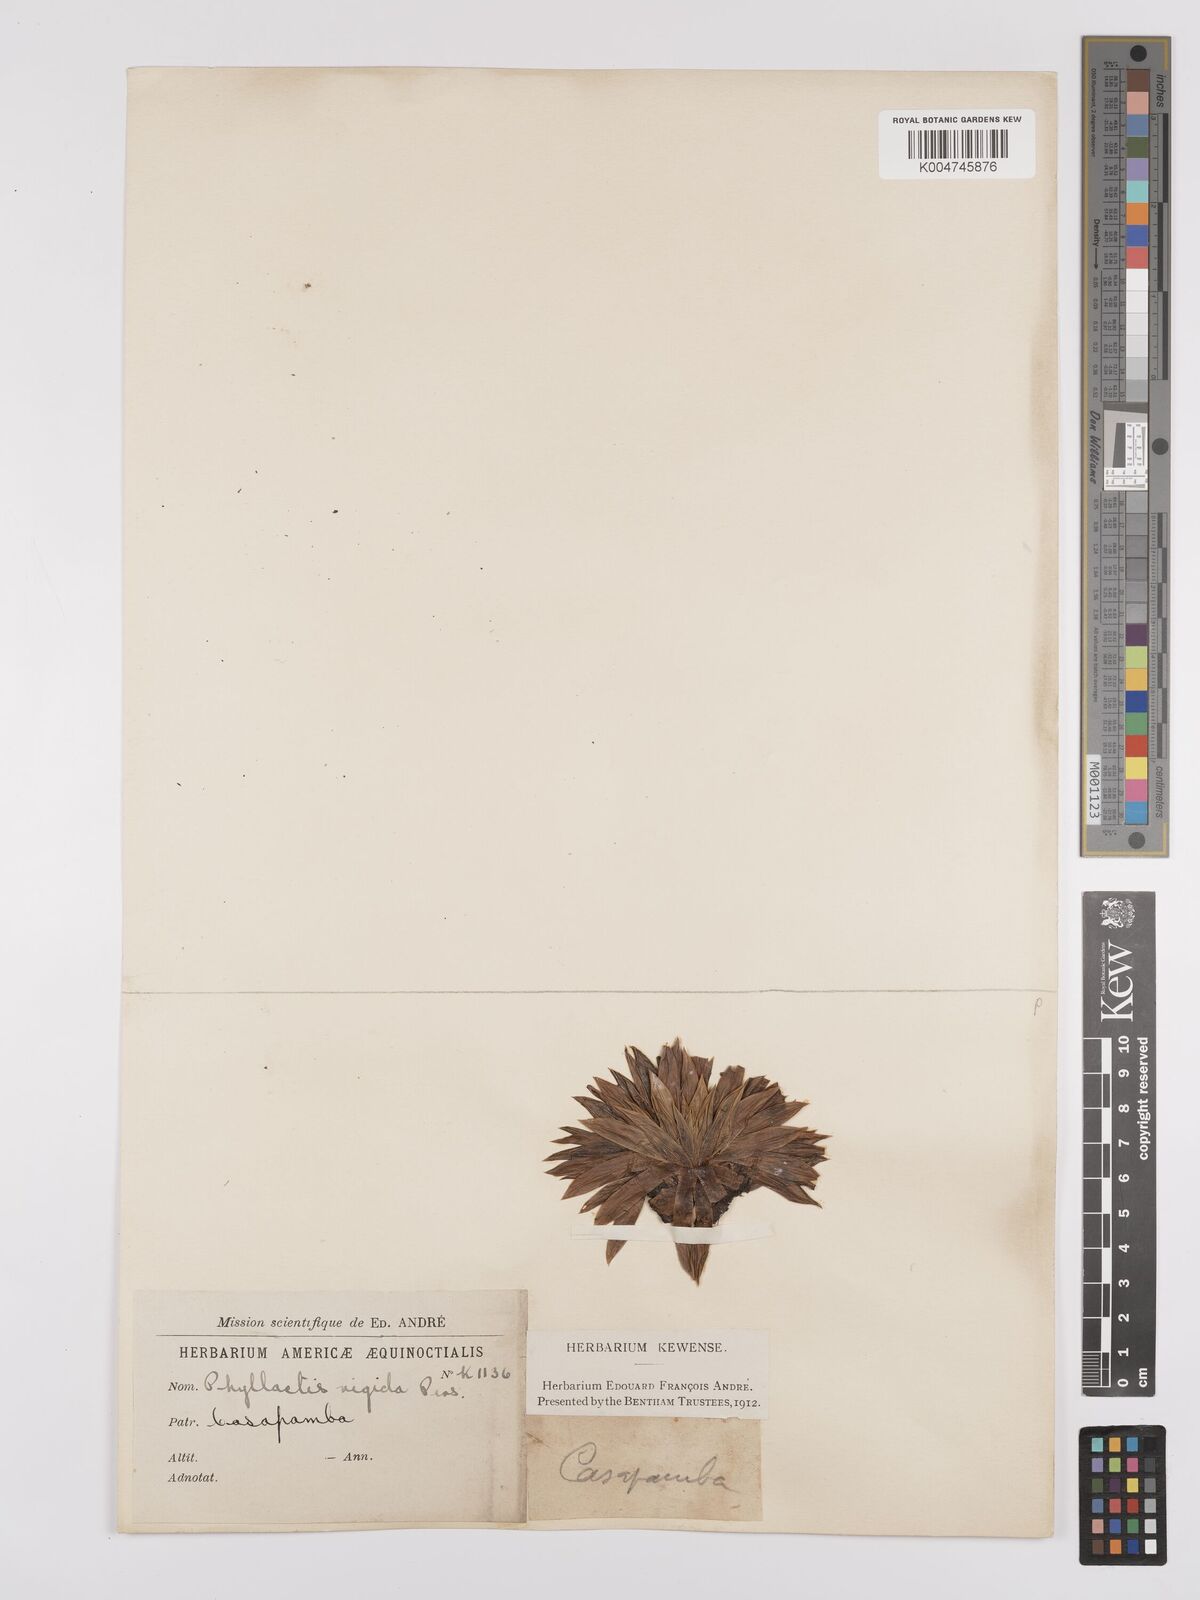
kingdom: Plantae
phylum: Tracheophyta
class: Magnoliopsida
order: Dipsacales
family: Caprifoliaceae
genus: Valeriana
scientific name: Valeriana rigida
